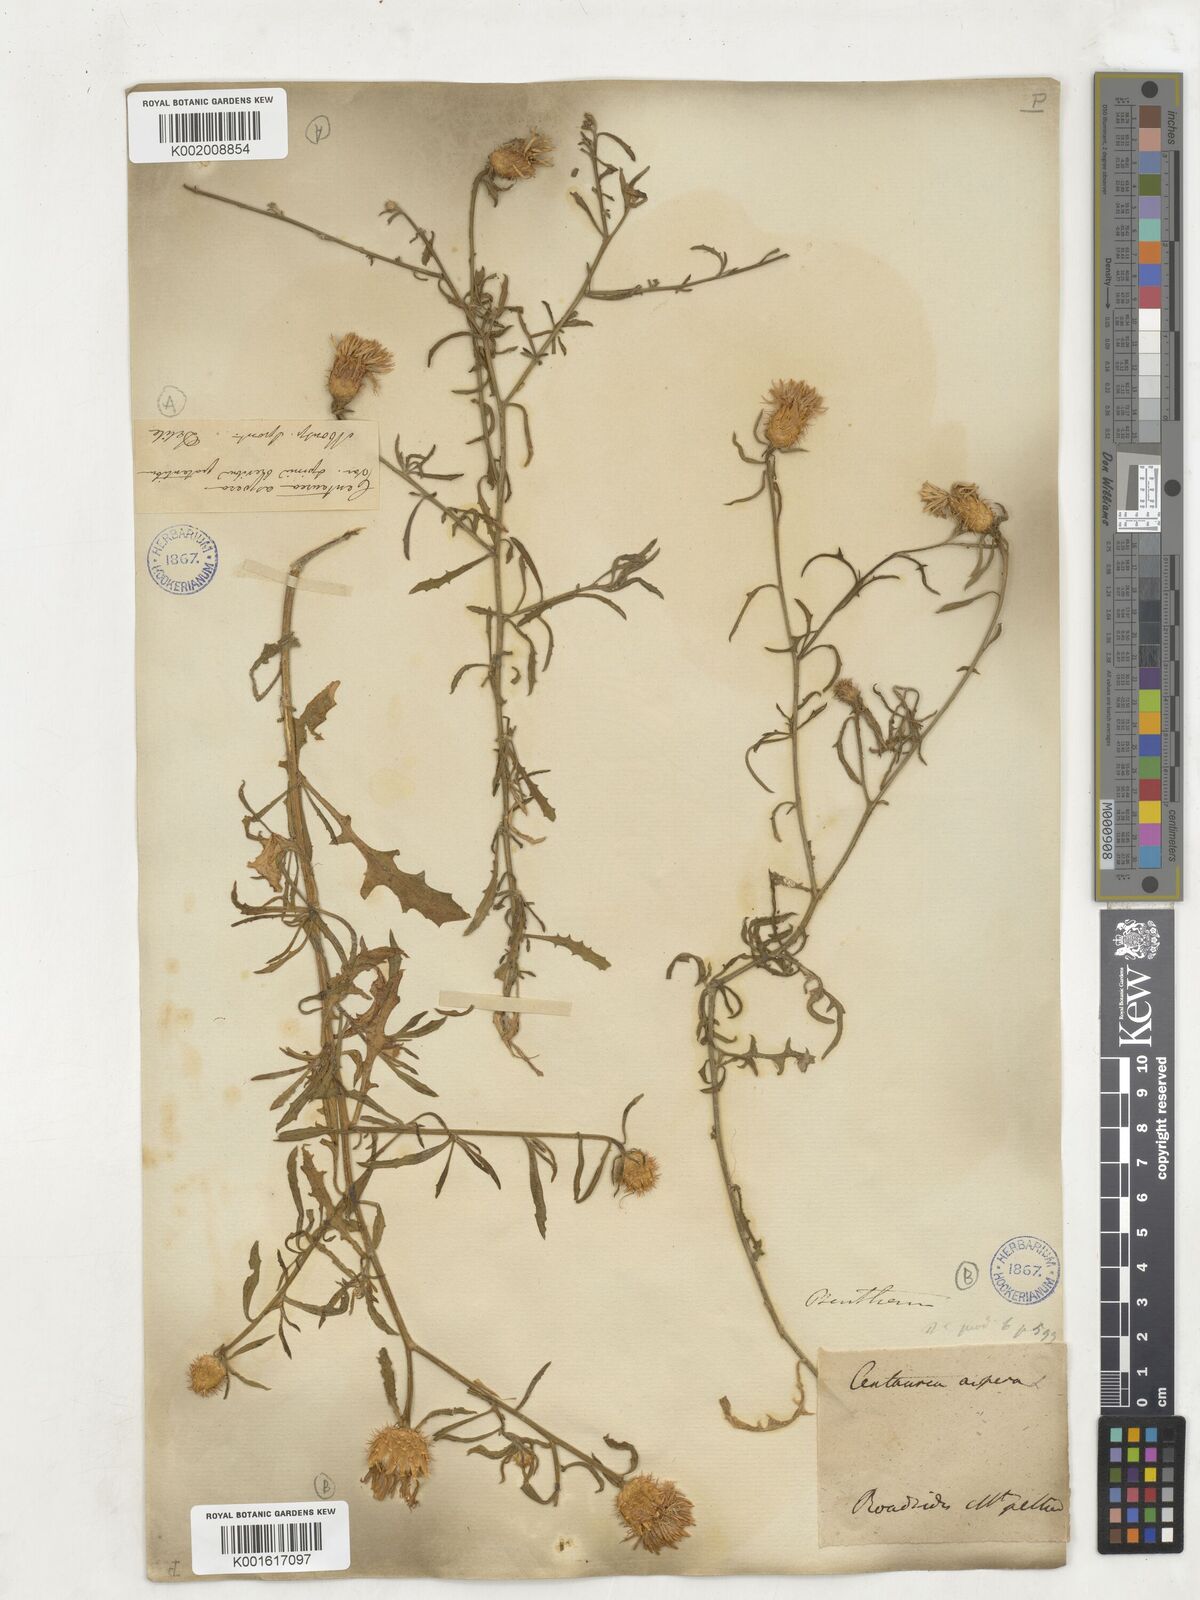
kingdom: Plantae
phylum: Tracheophyta
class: Magnoliopsida
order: Asterales
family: Asteraceae
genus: Centaurea
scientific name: Centaurea aspera
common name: Rough star-thistle
